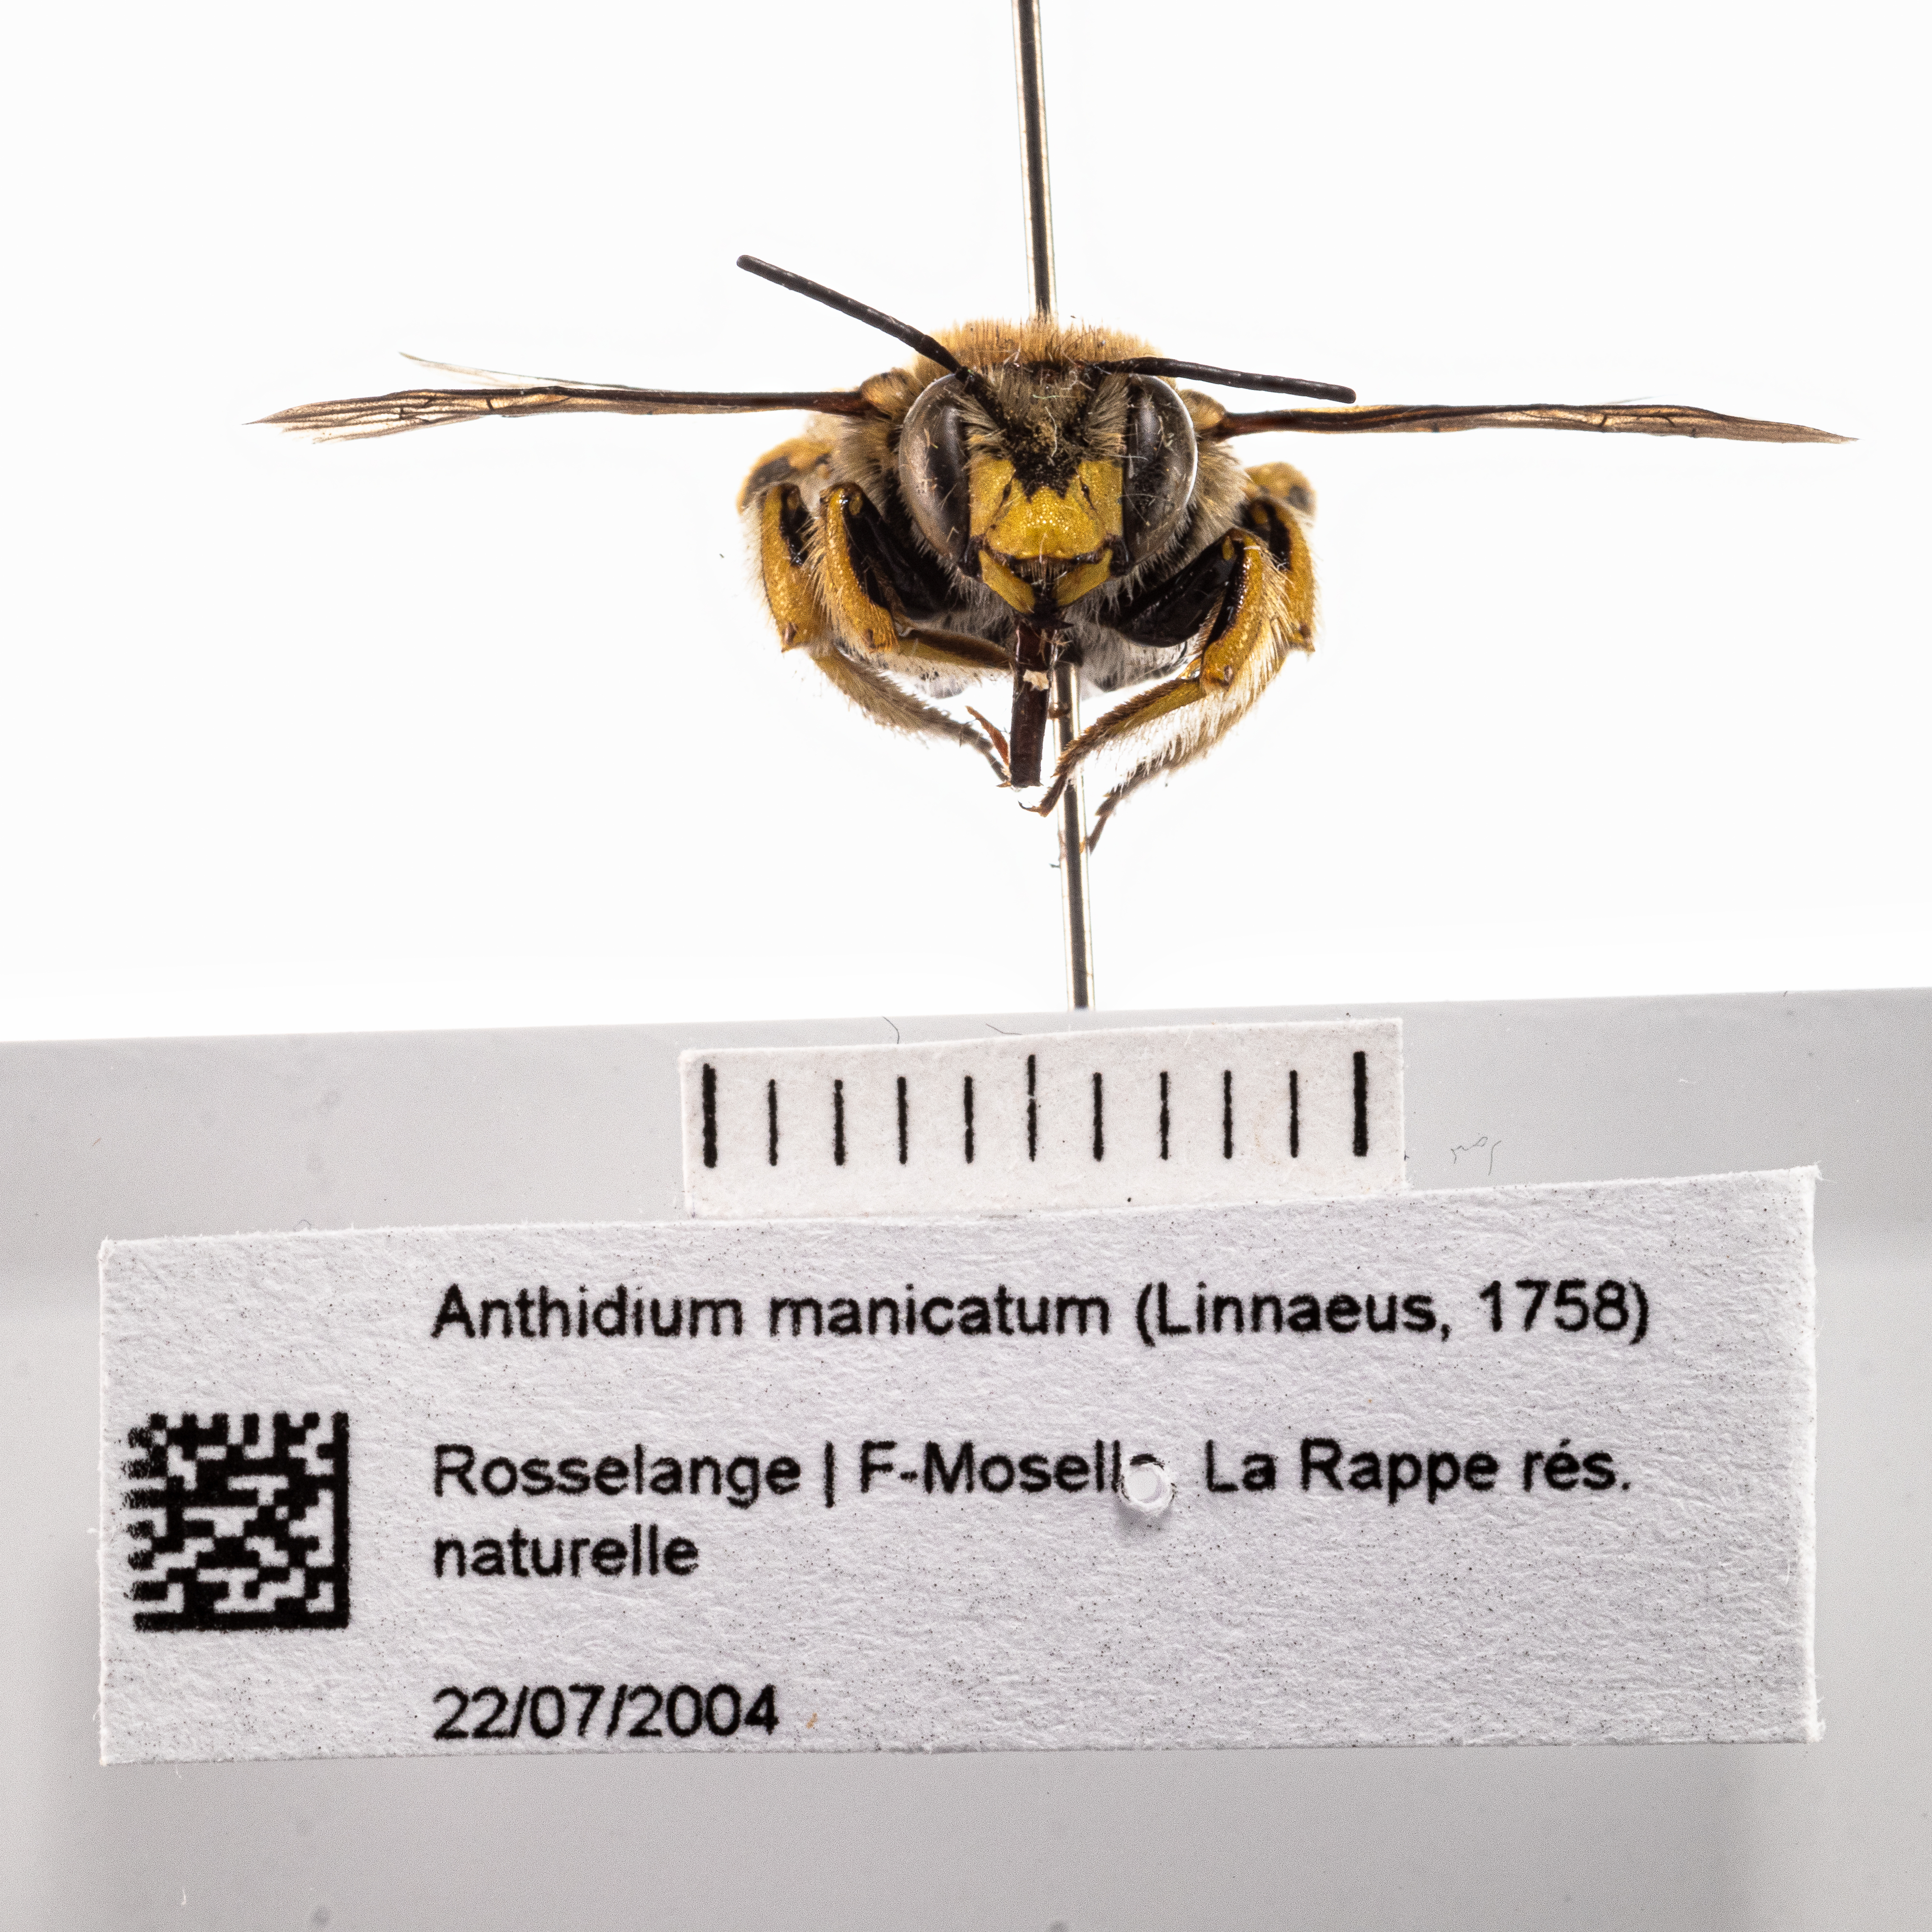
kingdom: Animalia
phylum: Arthropoda
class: Insecta
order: Hymenoptera
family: Megachilidae
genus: Anthidium
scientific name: Anthidium manicatum
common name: Wool carder bee
